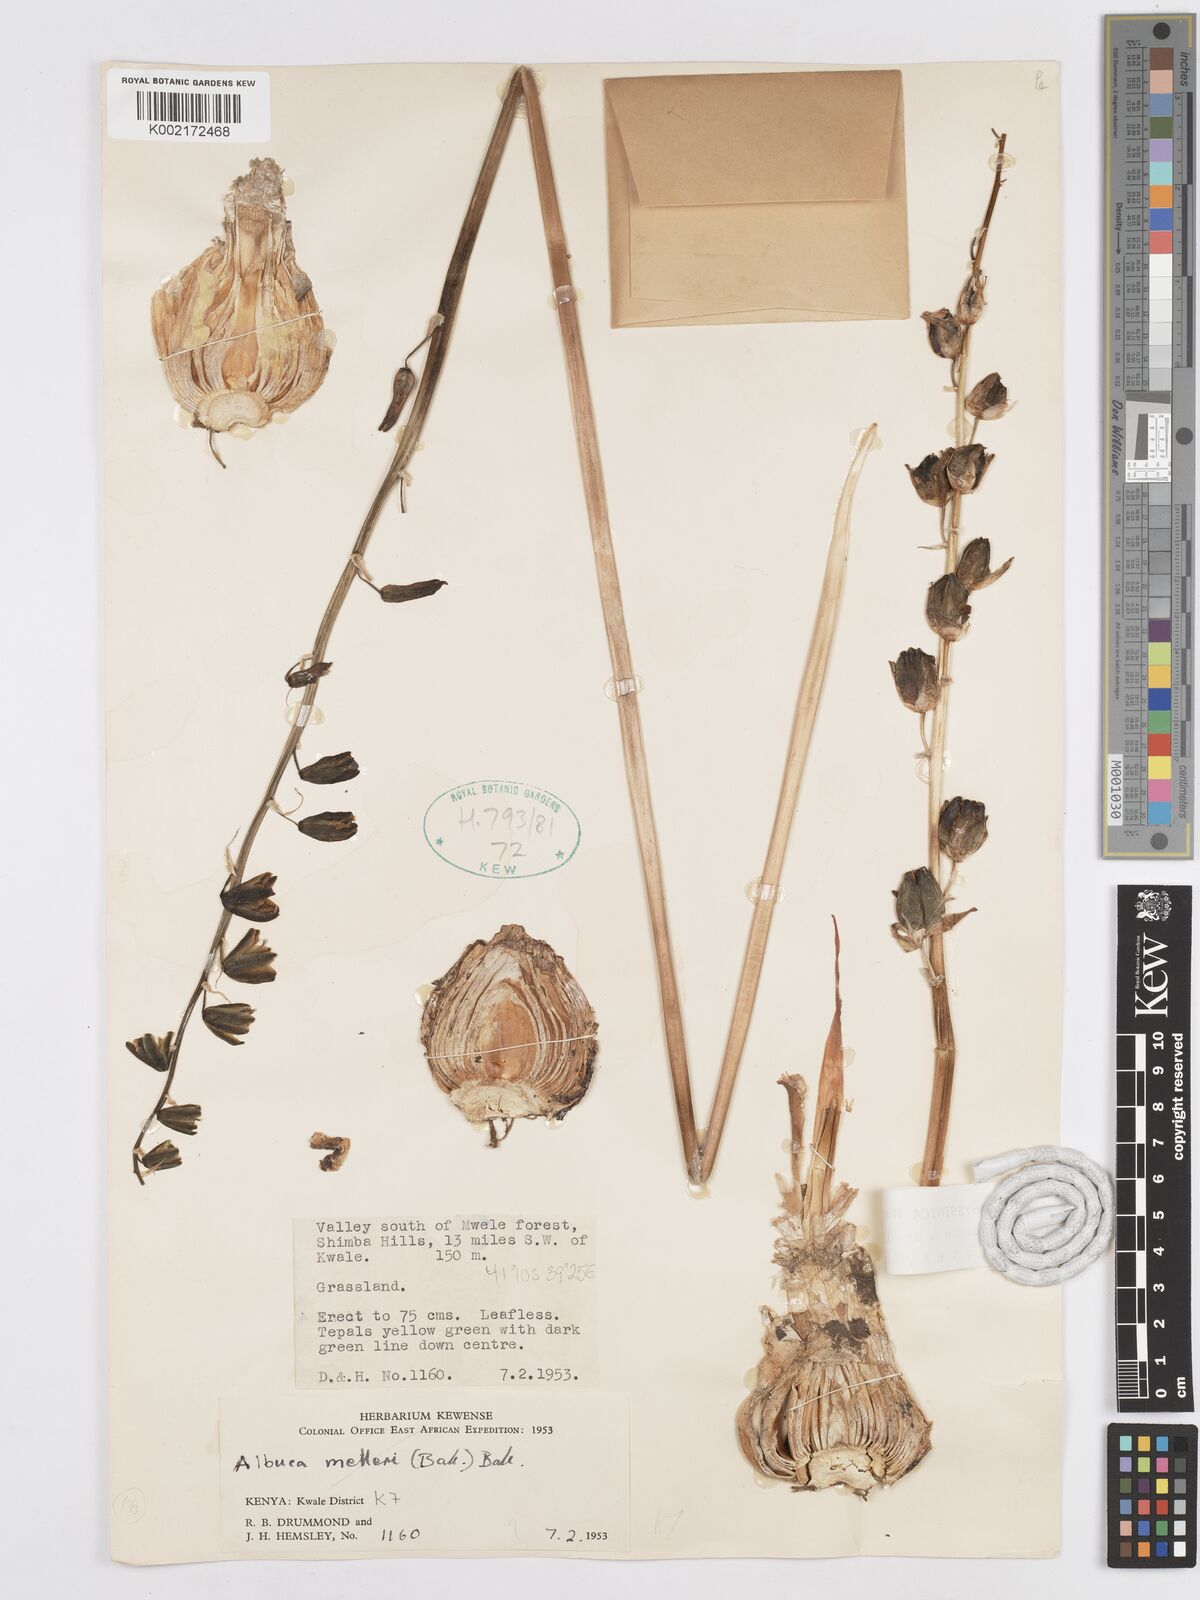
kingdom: Plantae
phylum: Tracheophyta
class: Liliopsida
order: Asparagales
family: Asparagaceae
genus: Albuca
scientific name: Albuca abyssinica
